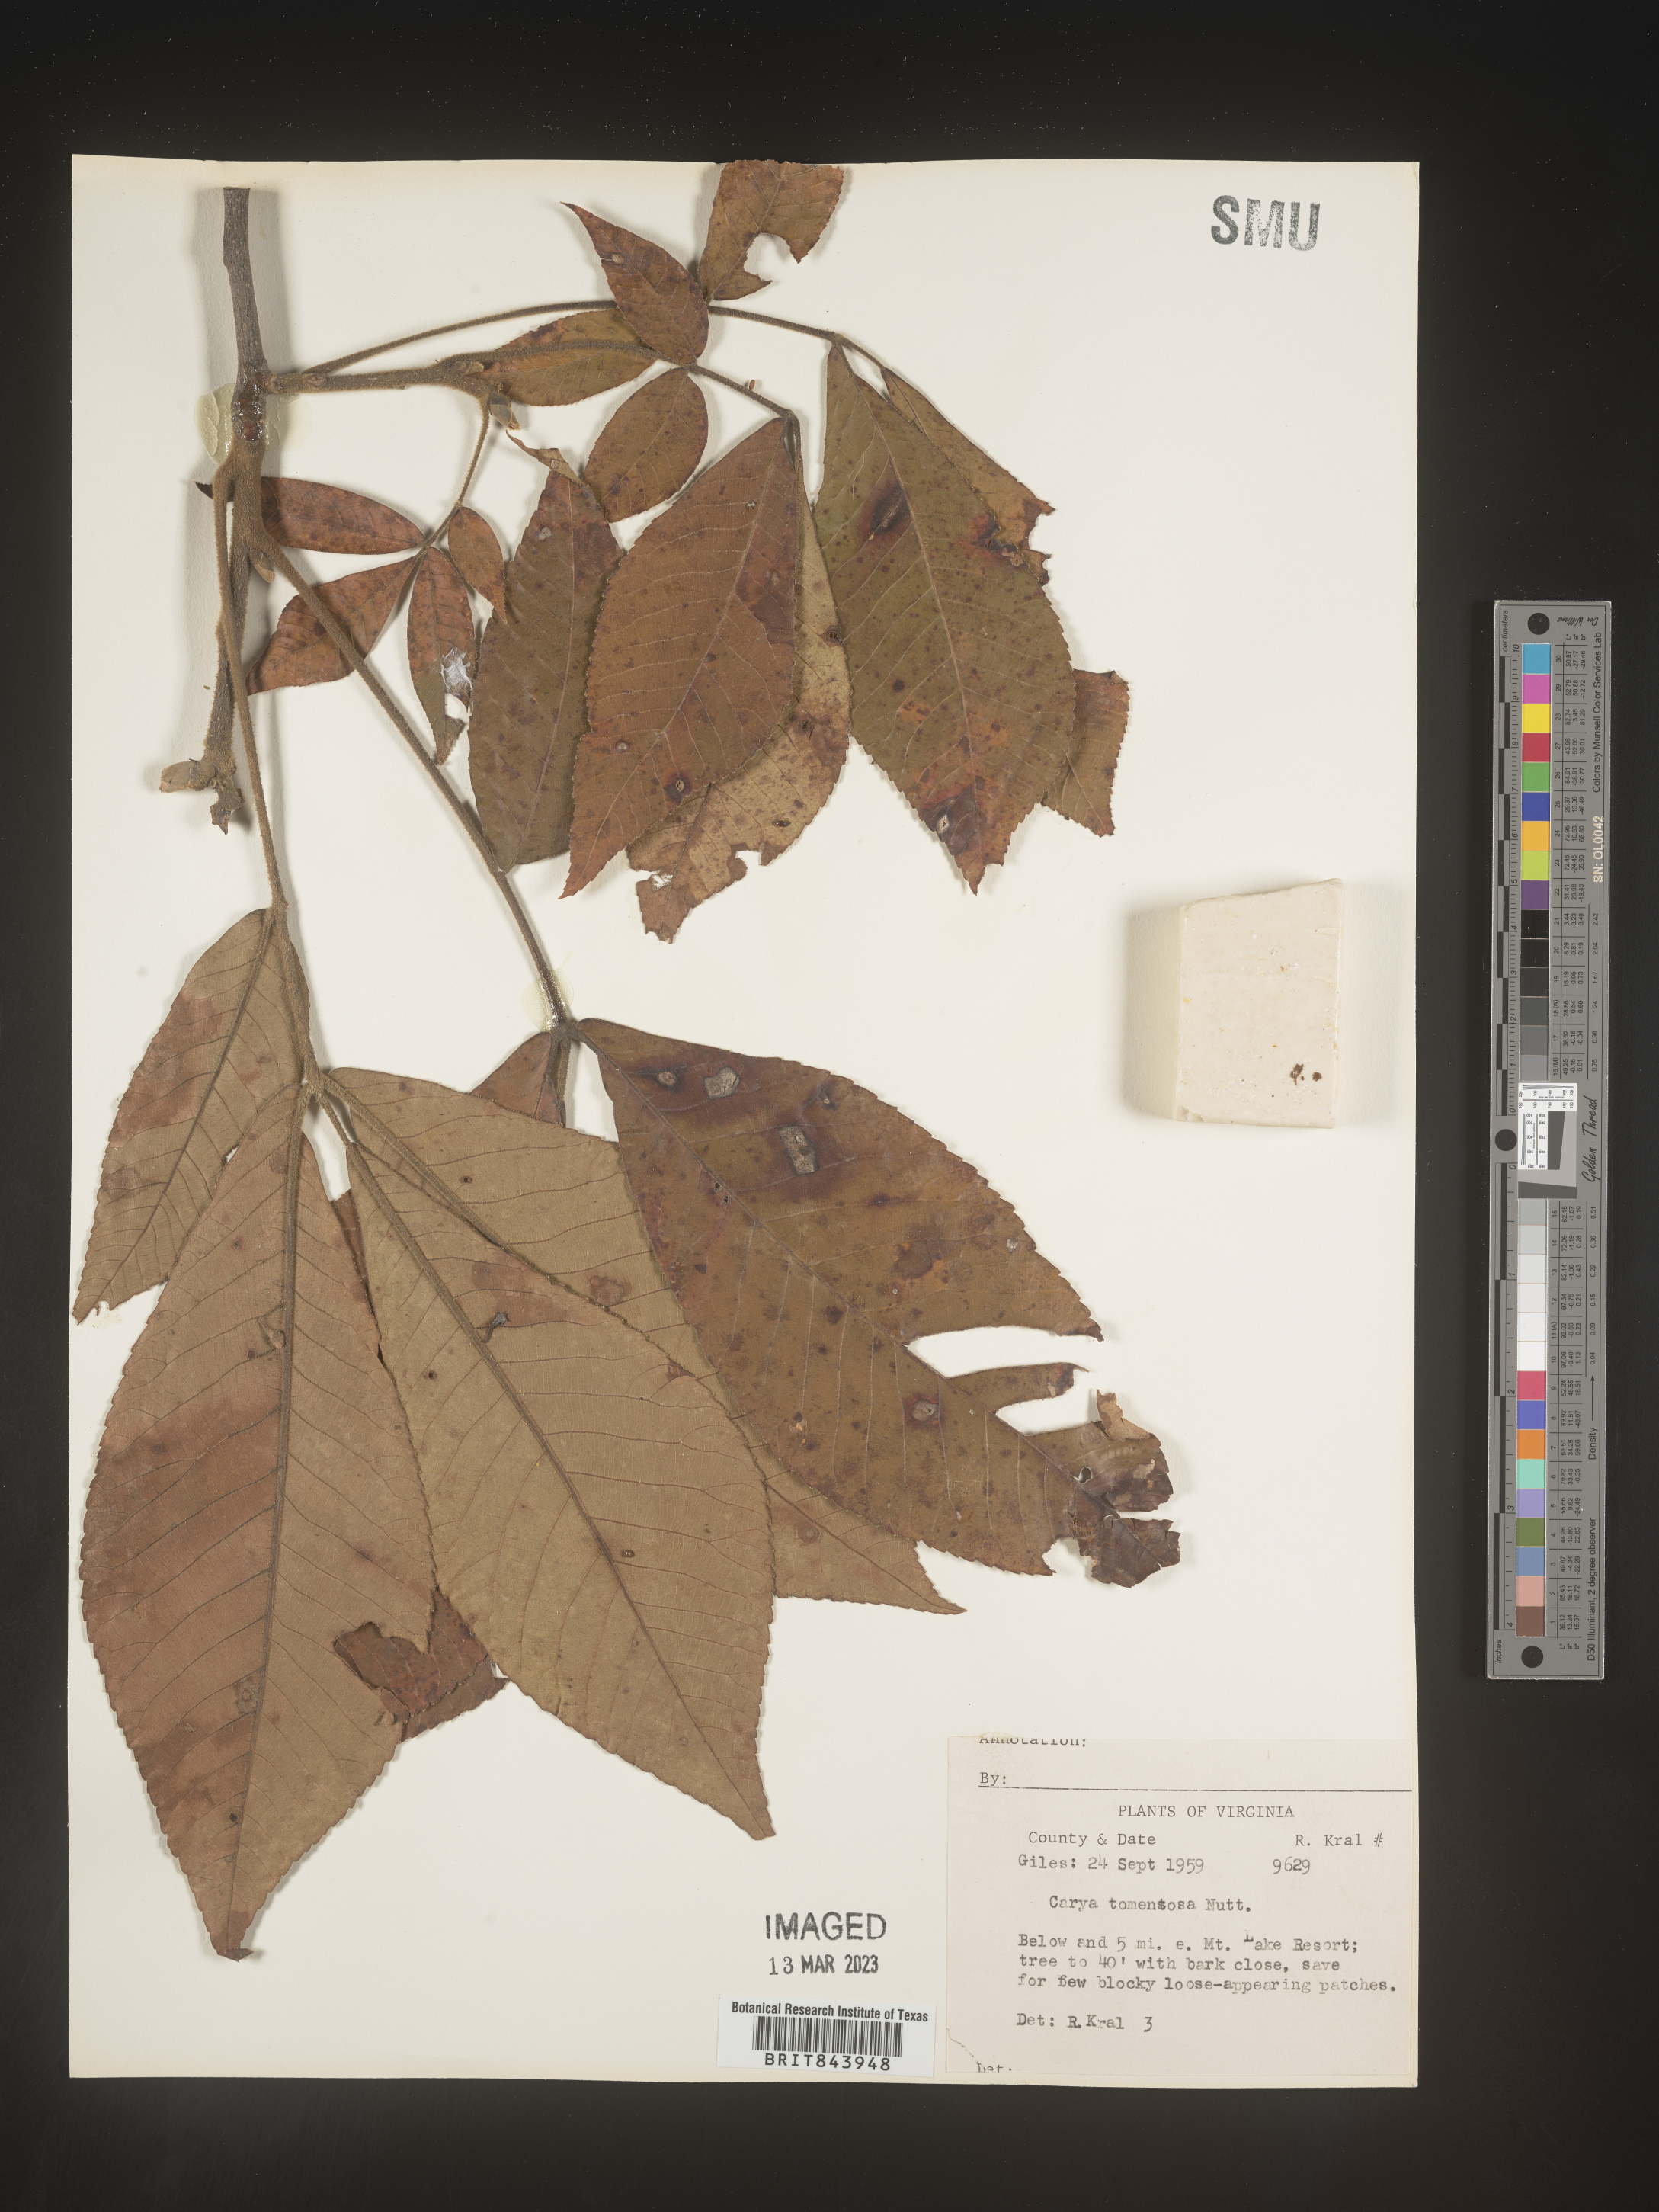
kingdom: Plantae
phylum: Tracheophyta
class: Magnoliopsida
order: Fagales
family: Juglandaceae
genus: Carya
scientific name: Carya alba
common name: Mockernut hickory
